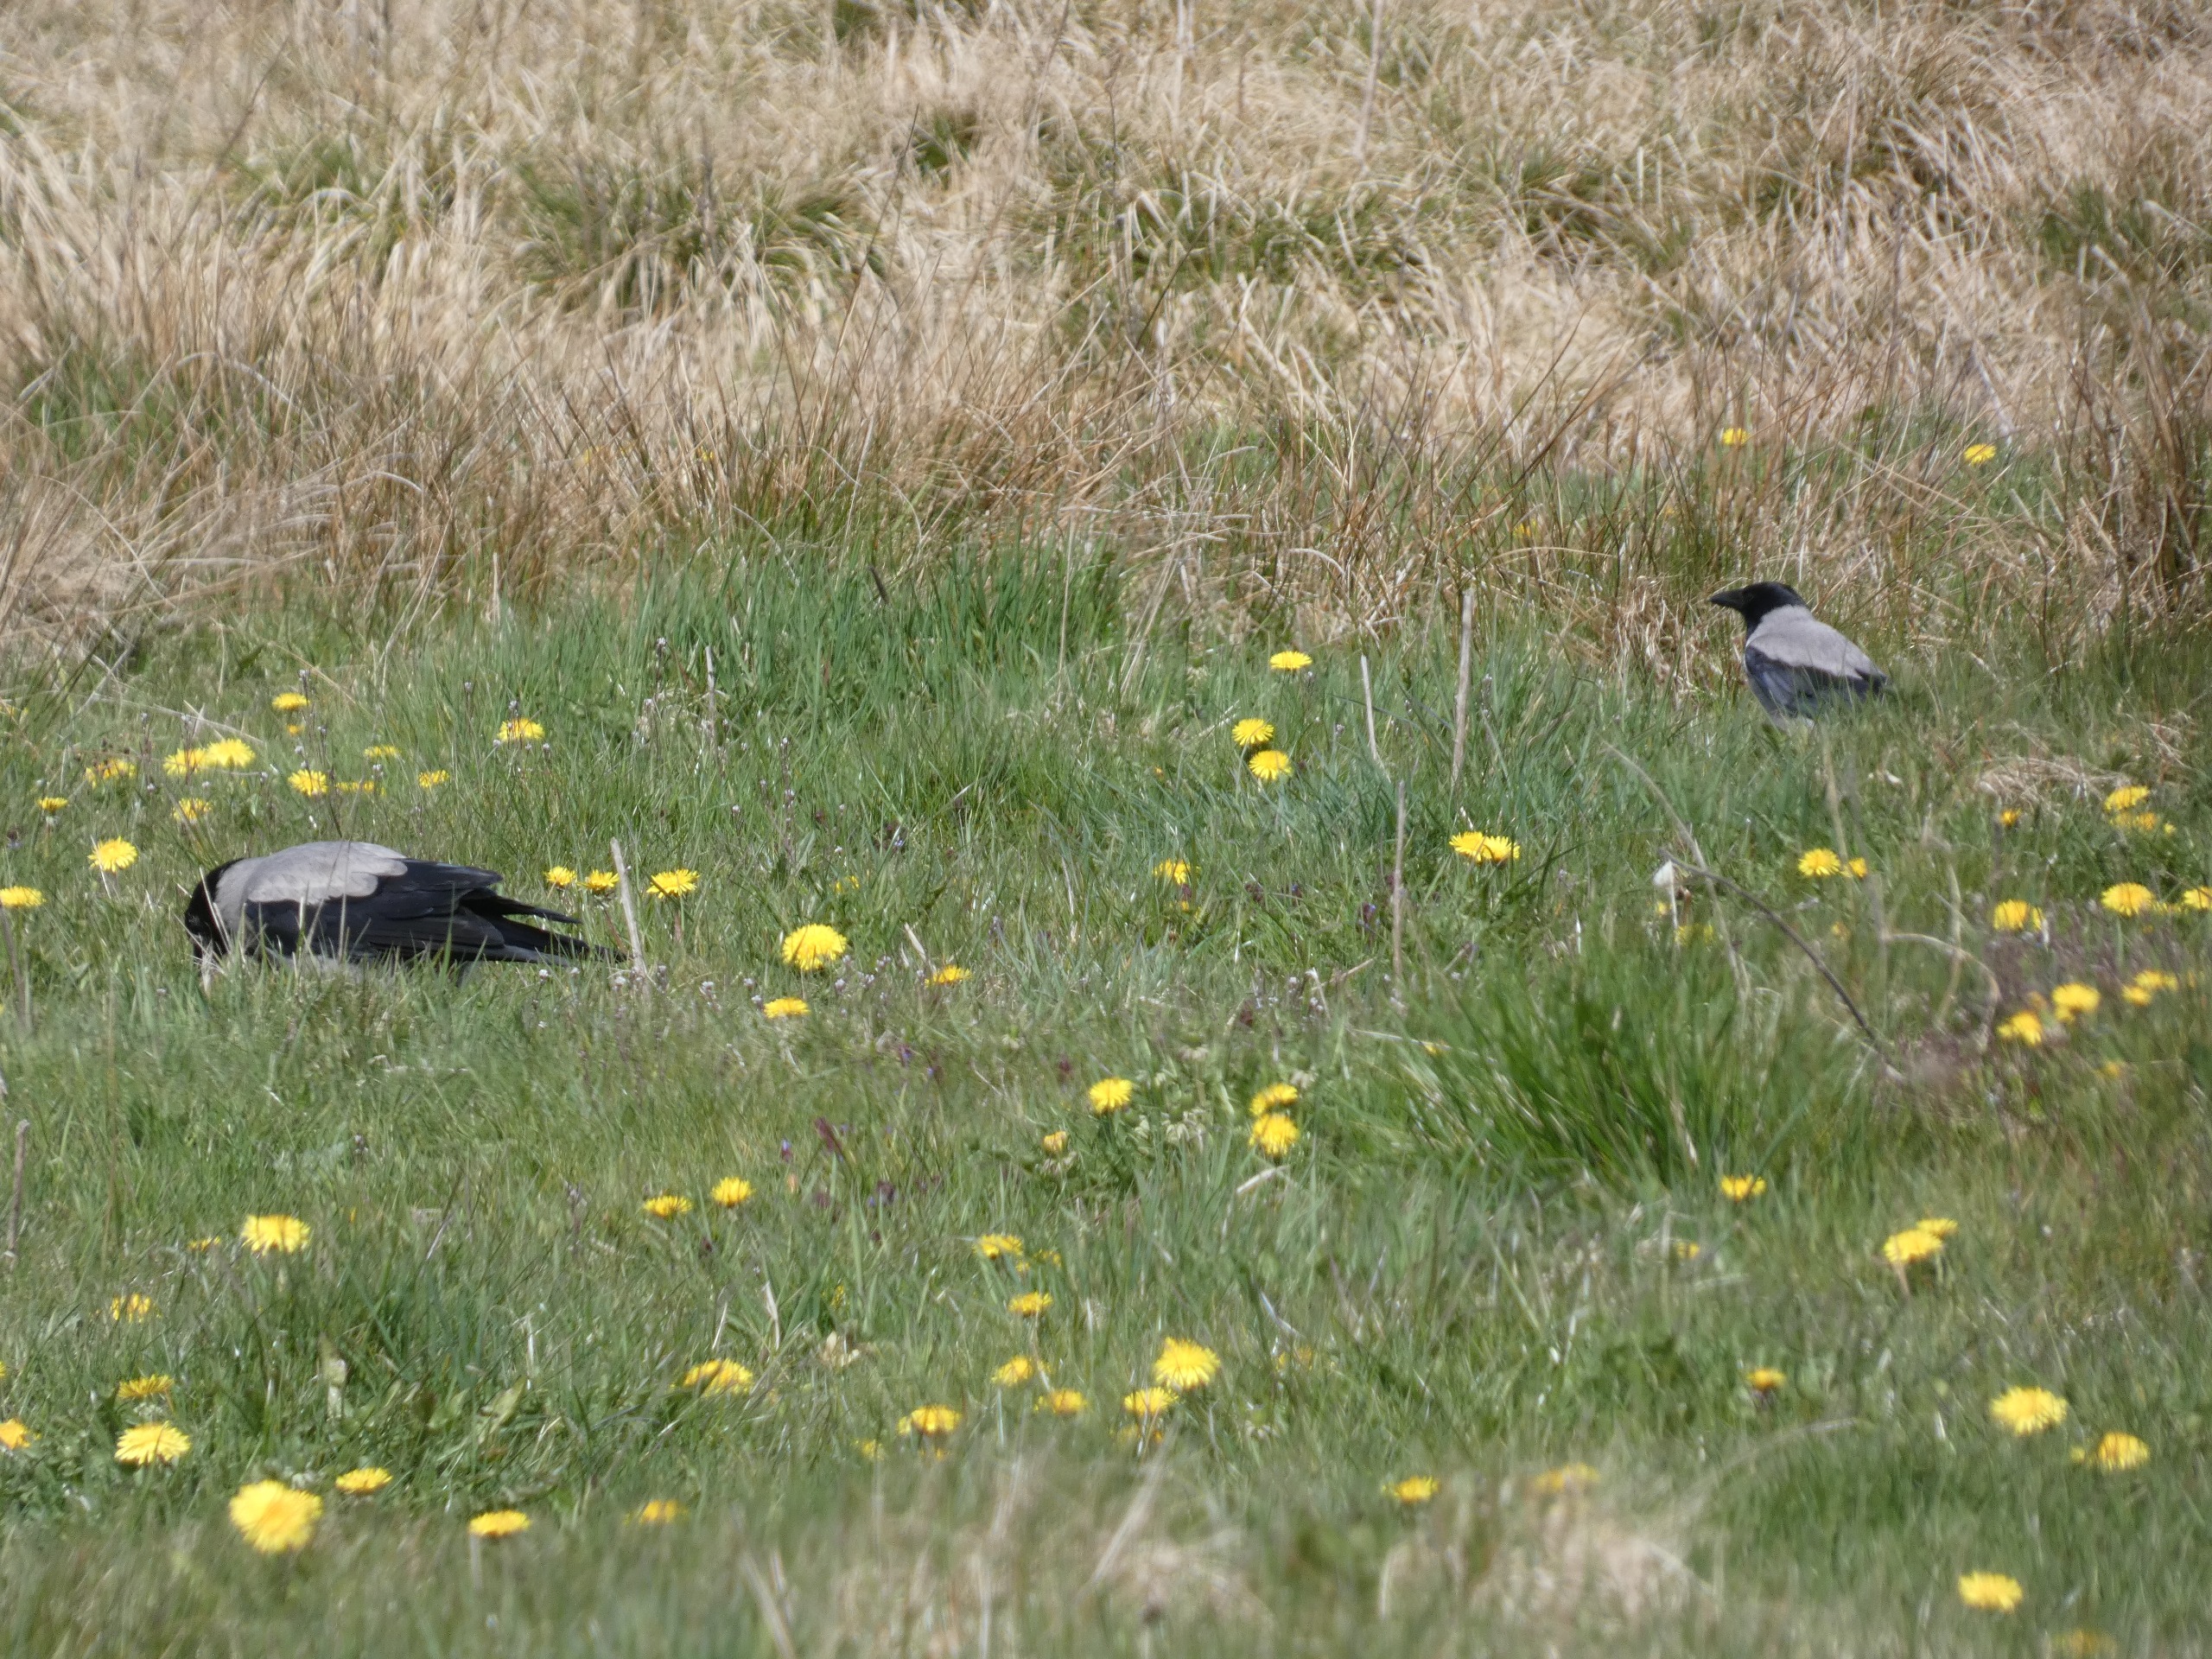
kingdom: Animalia
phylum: Chordata
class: Aves
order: Passeriformes
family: Corvidae
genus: Corvus
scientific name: Corvus cornix
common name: Gråkrage
